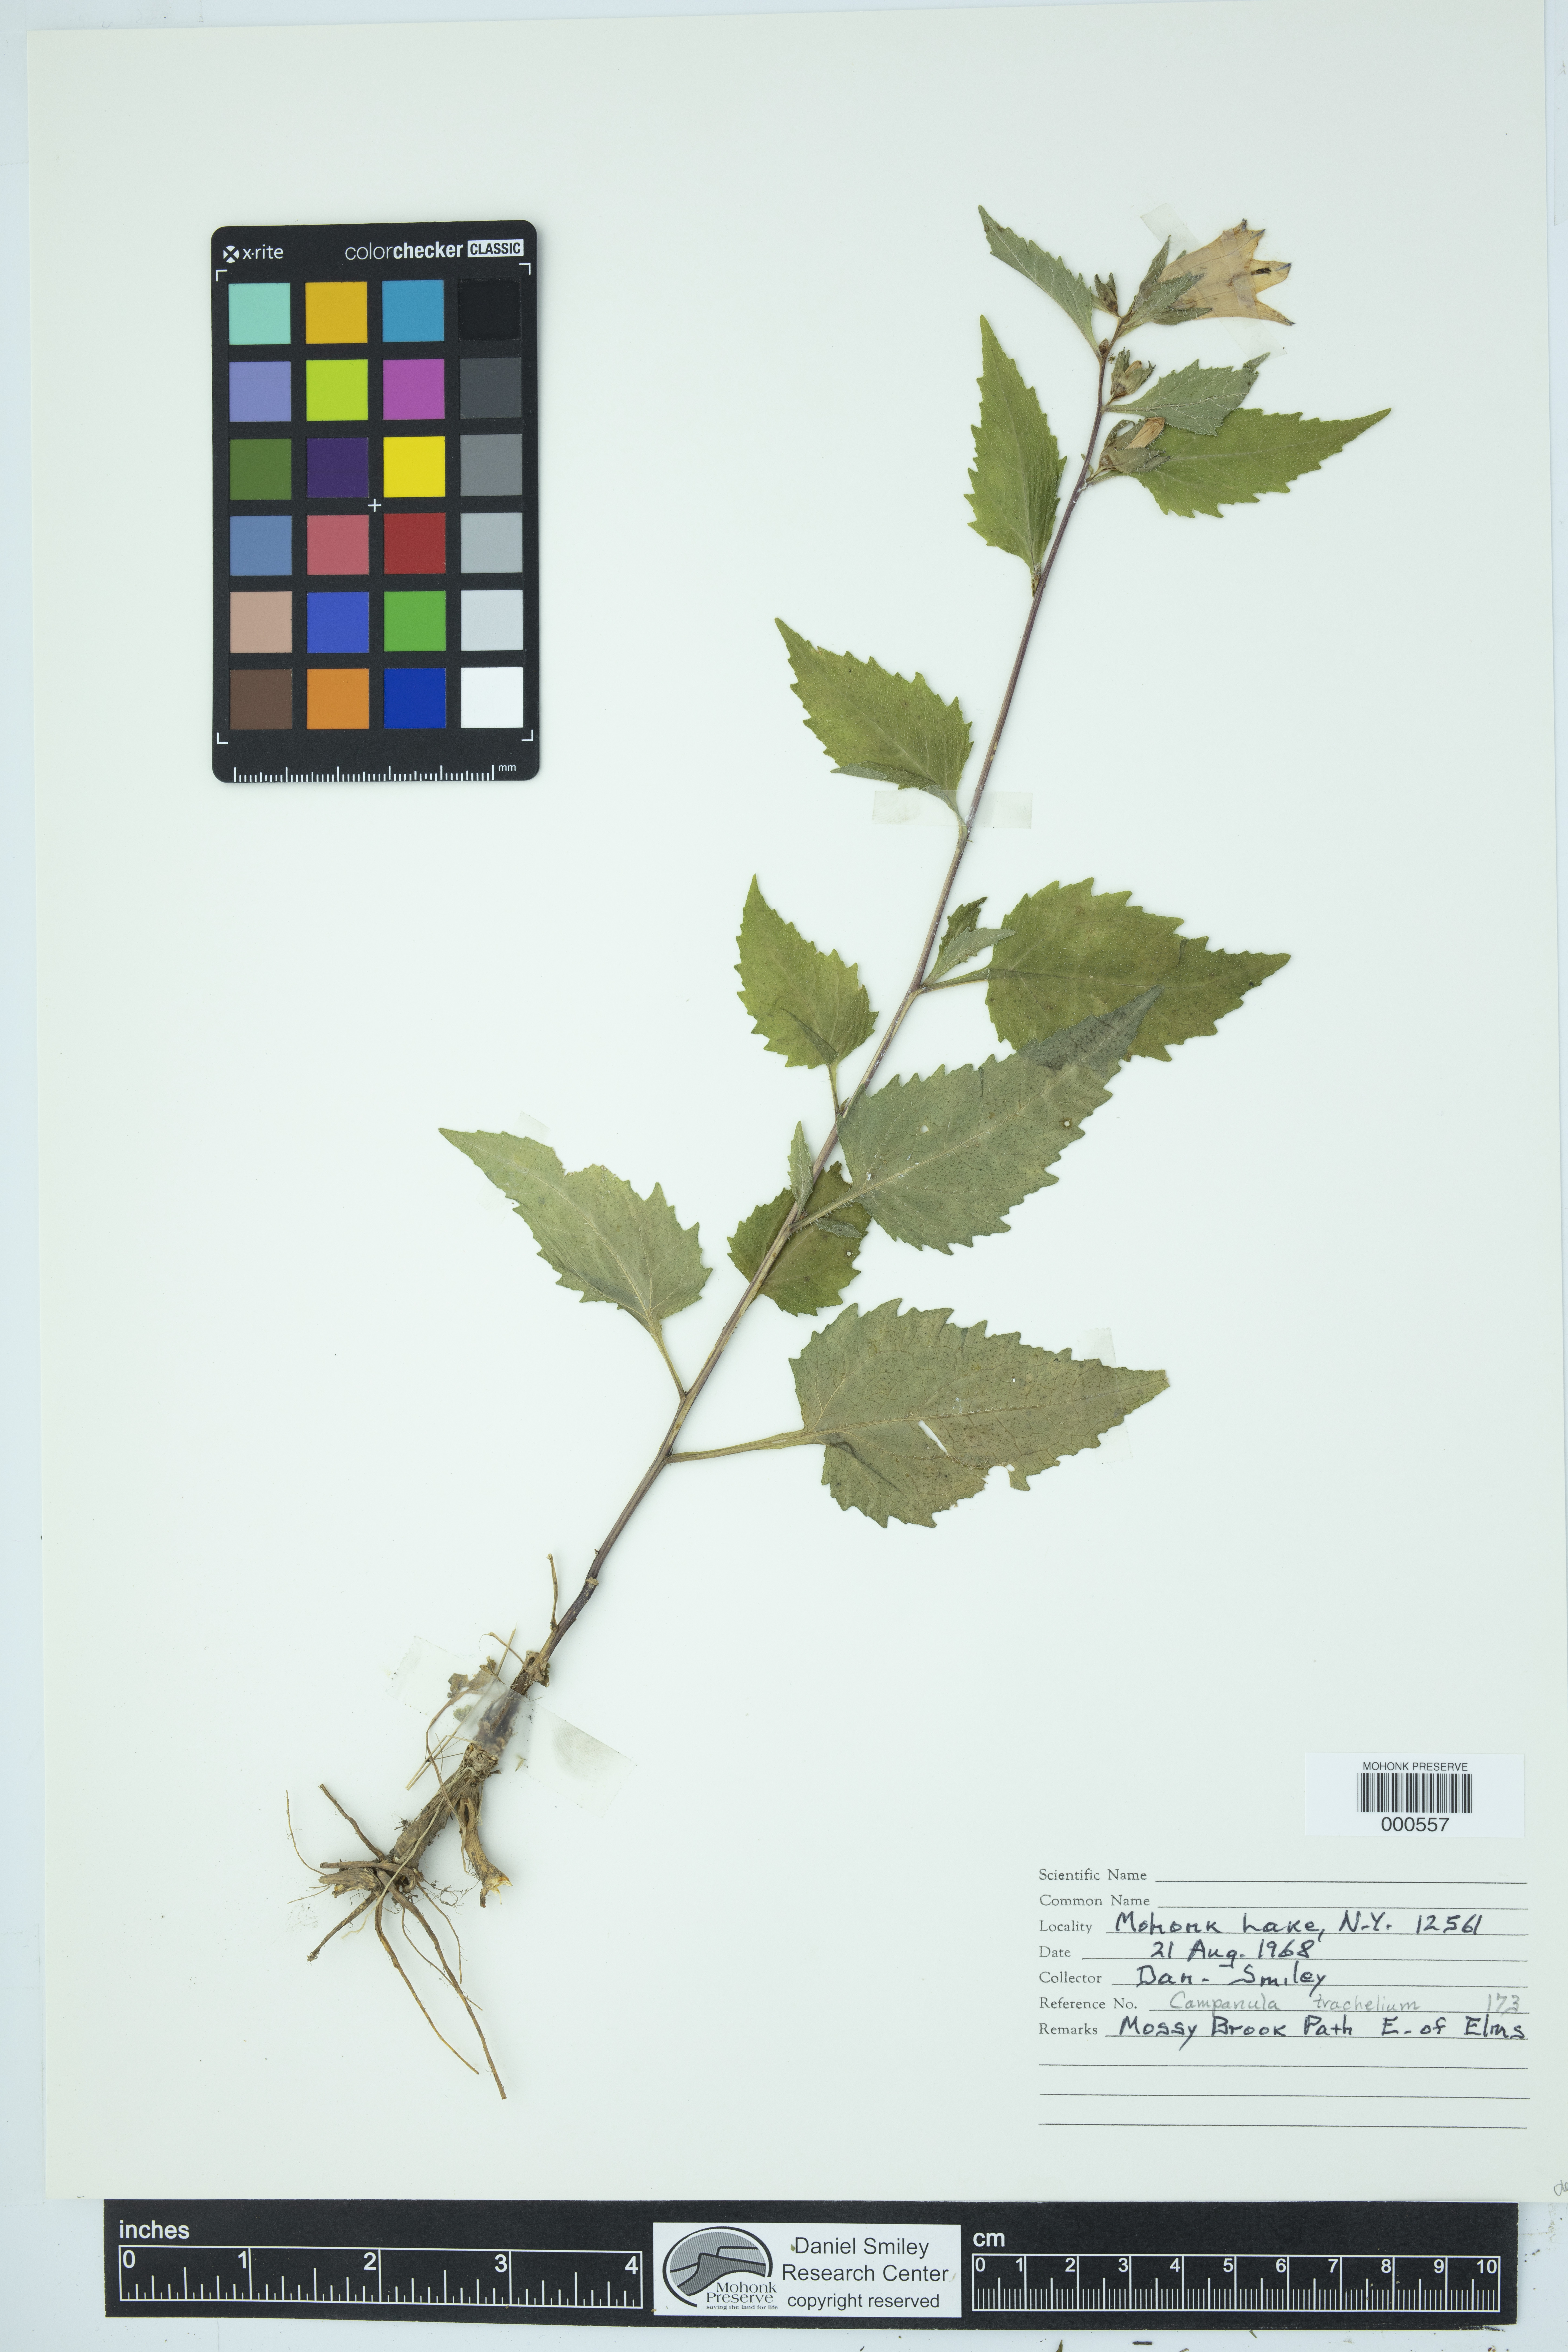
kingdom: Plantae
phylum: Tracheophyta
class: Magnoliopsida
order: Asterales
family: Campanulaceae
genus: Campanula
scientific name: Campanula trachelium
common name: Nettle-leaved bellflower
